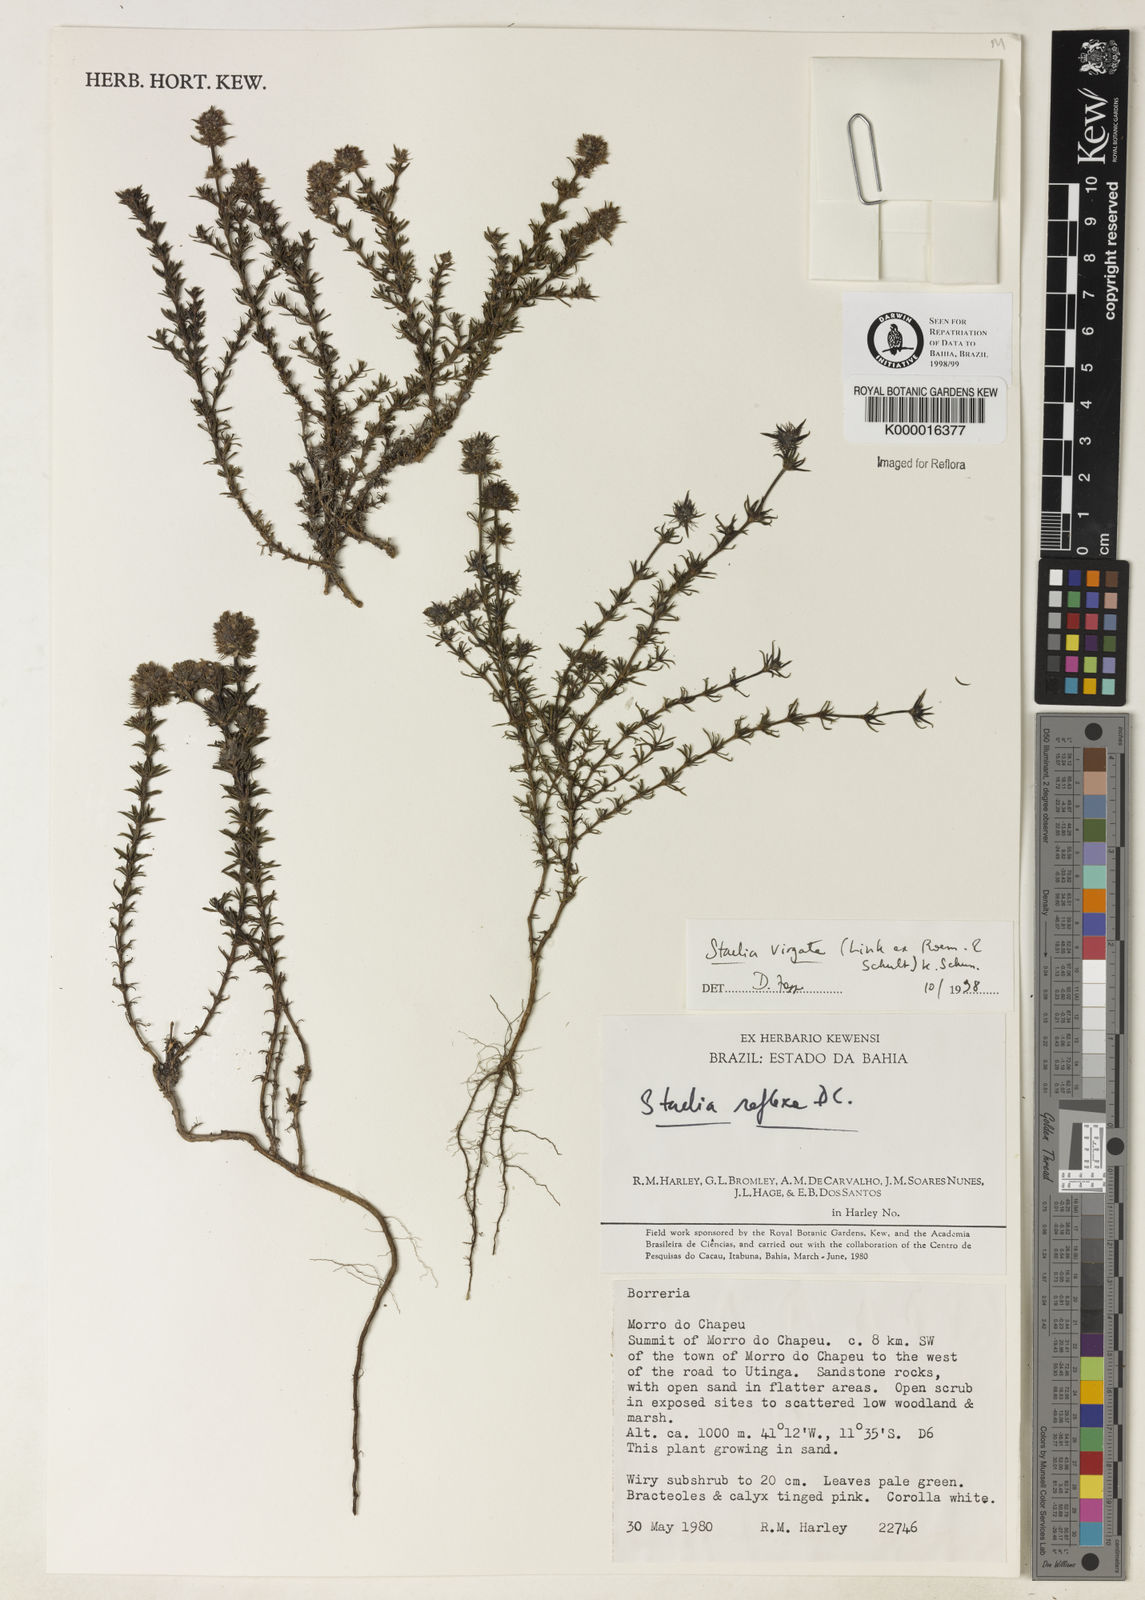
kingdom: Plantae
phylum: Tracheophyta
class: Magnoliopsida
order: Gentianales
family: Rubiaceae
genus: Staelia
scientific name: Staelia virgata
